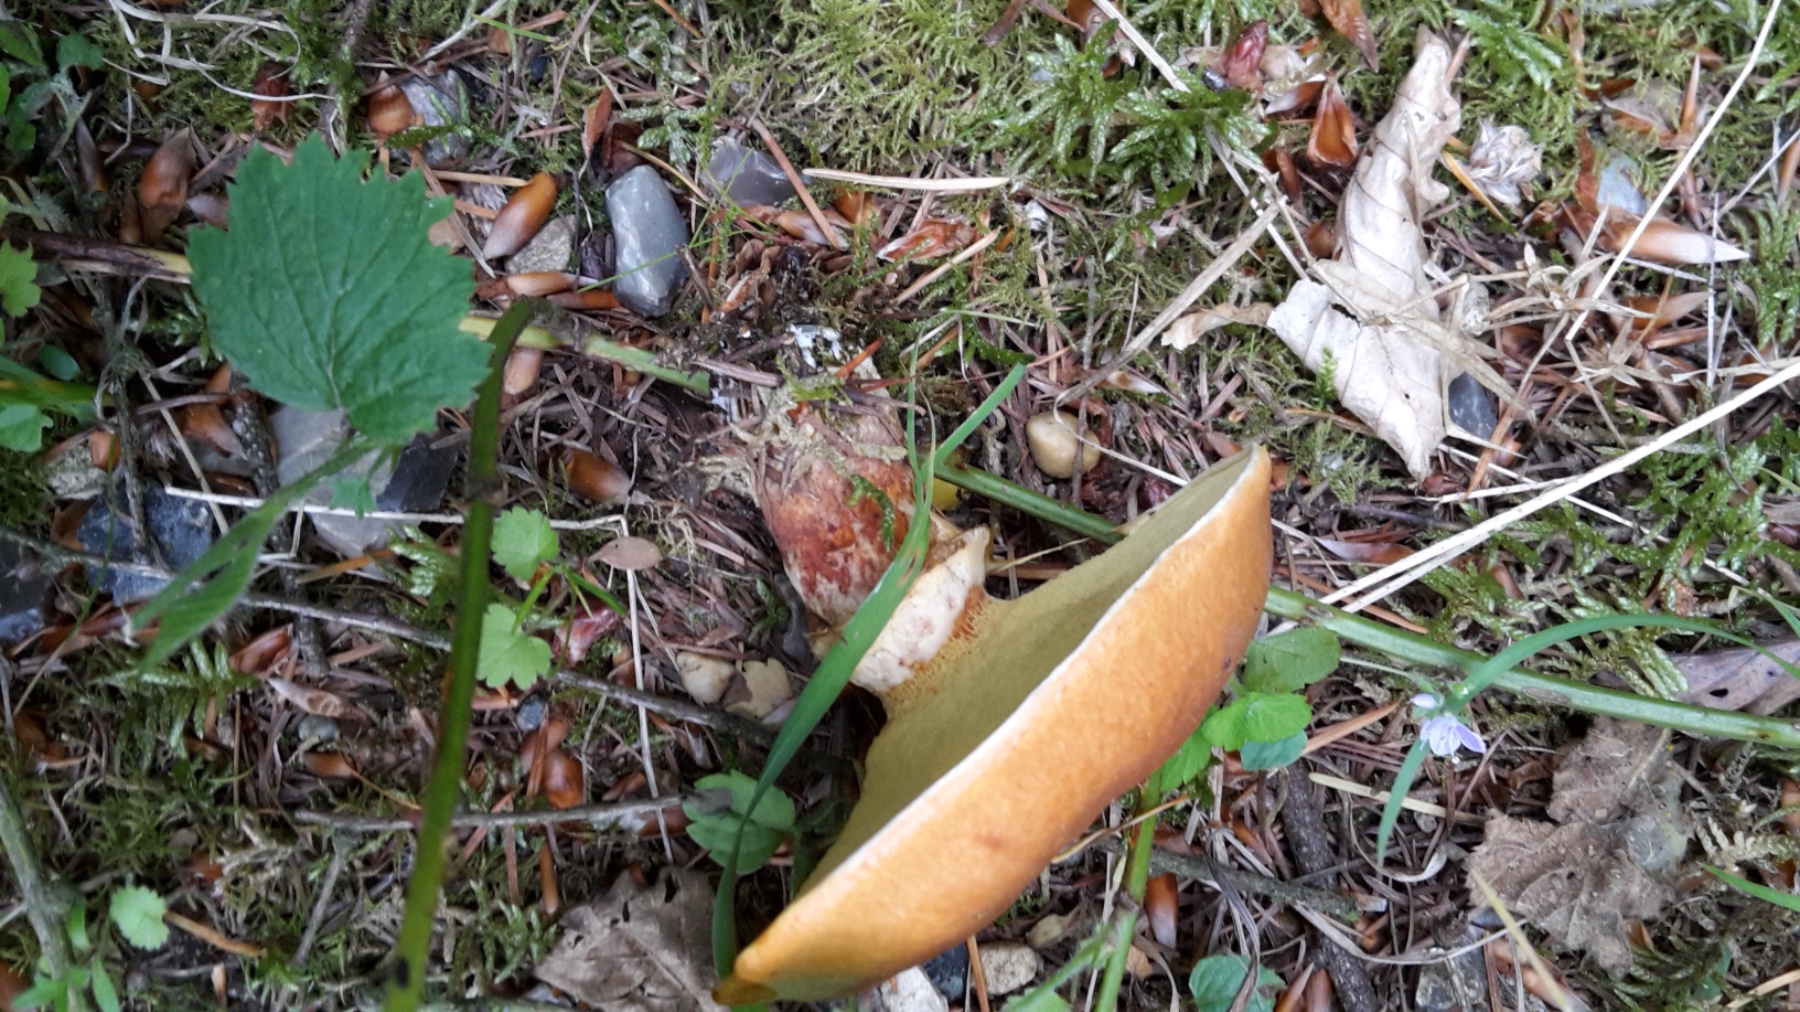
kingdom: Fungi
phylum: Basidiomycota
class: Agaricomycetes
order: Boletales
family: Suillaceae
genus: Suillus
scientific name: Suillus grevillei
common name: lærke-slimrørhat
